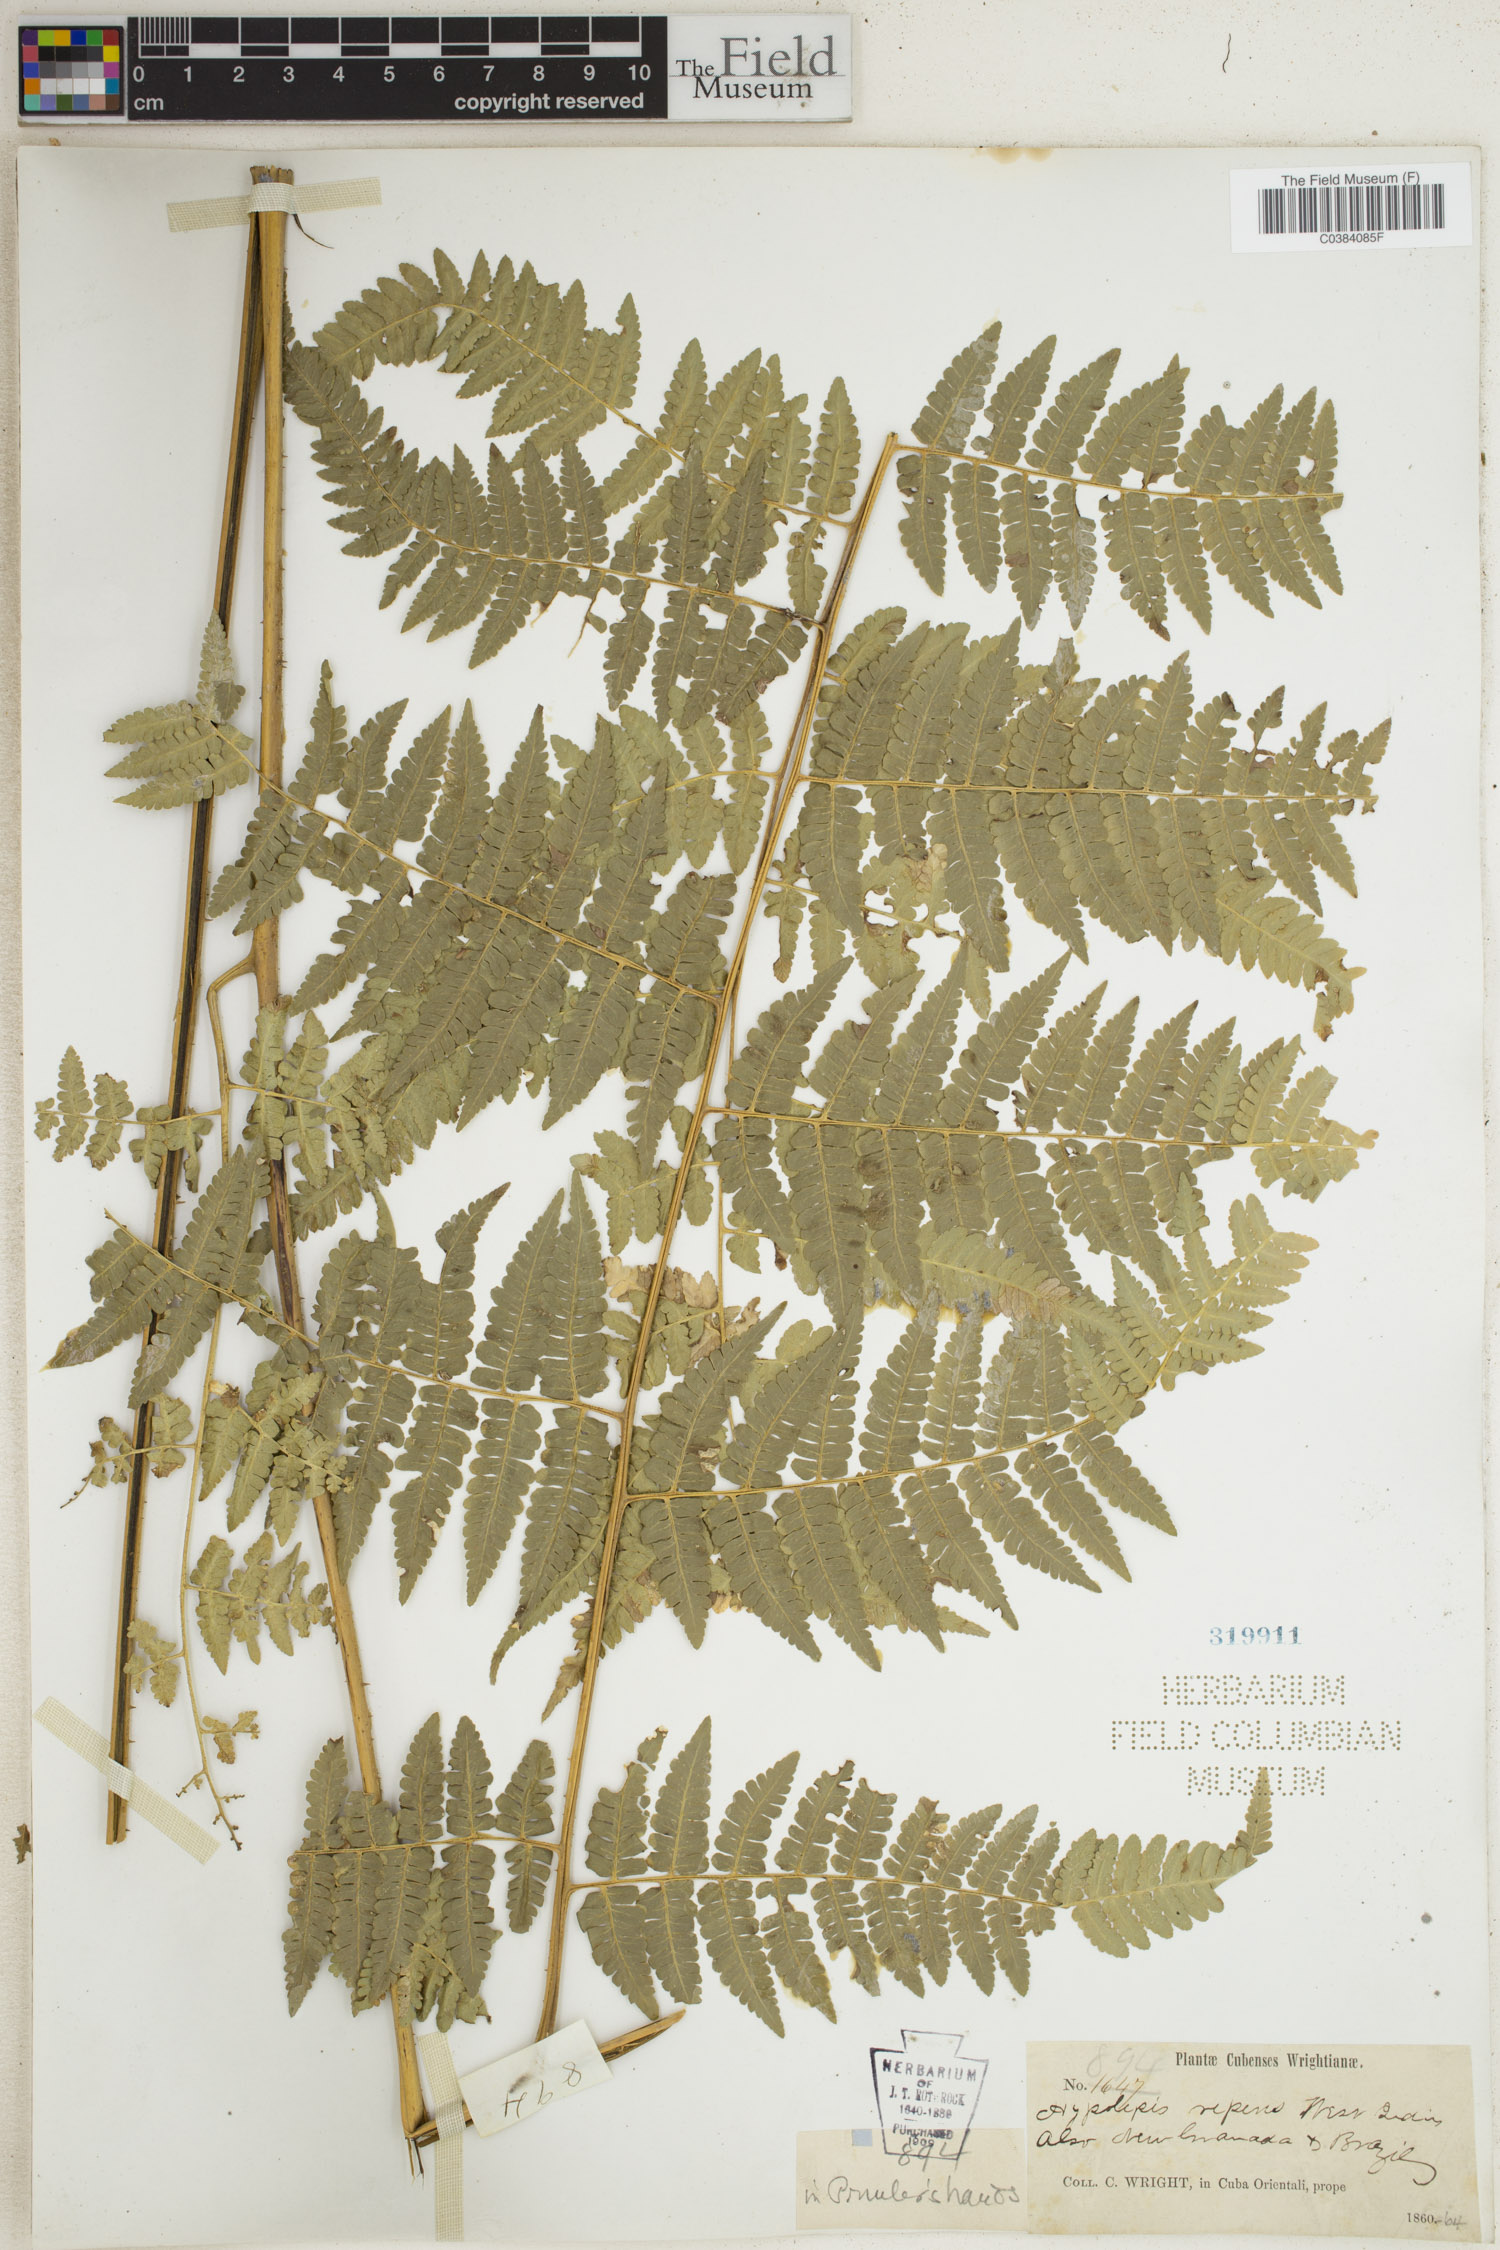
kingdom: Plantae
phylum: Tracheophyta
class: Polypodiopsida
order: Polypodiales
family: Dennstaedtiaceae
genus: Hypolepis
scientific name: Hypolepis repens
